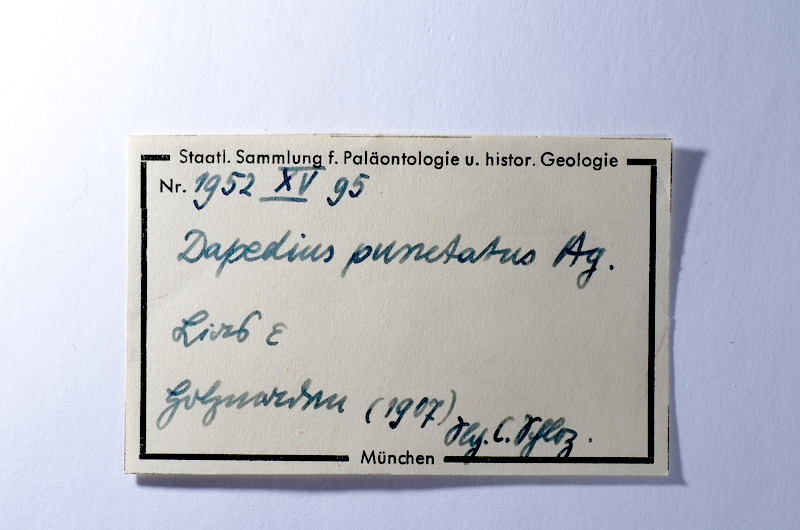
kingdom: Animalia
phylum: Chordata
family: Dapediidae
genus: Dapedium
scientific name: Dapedium punctatum
